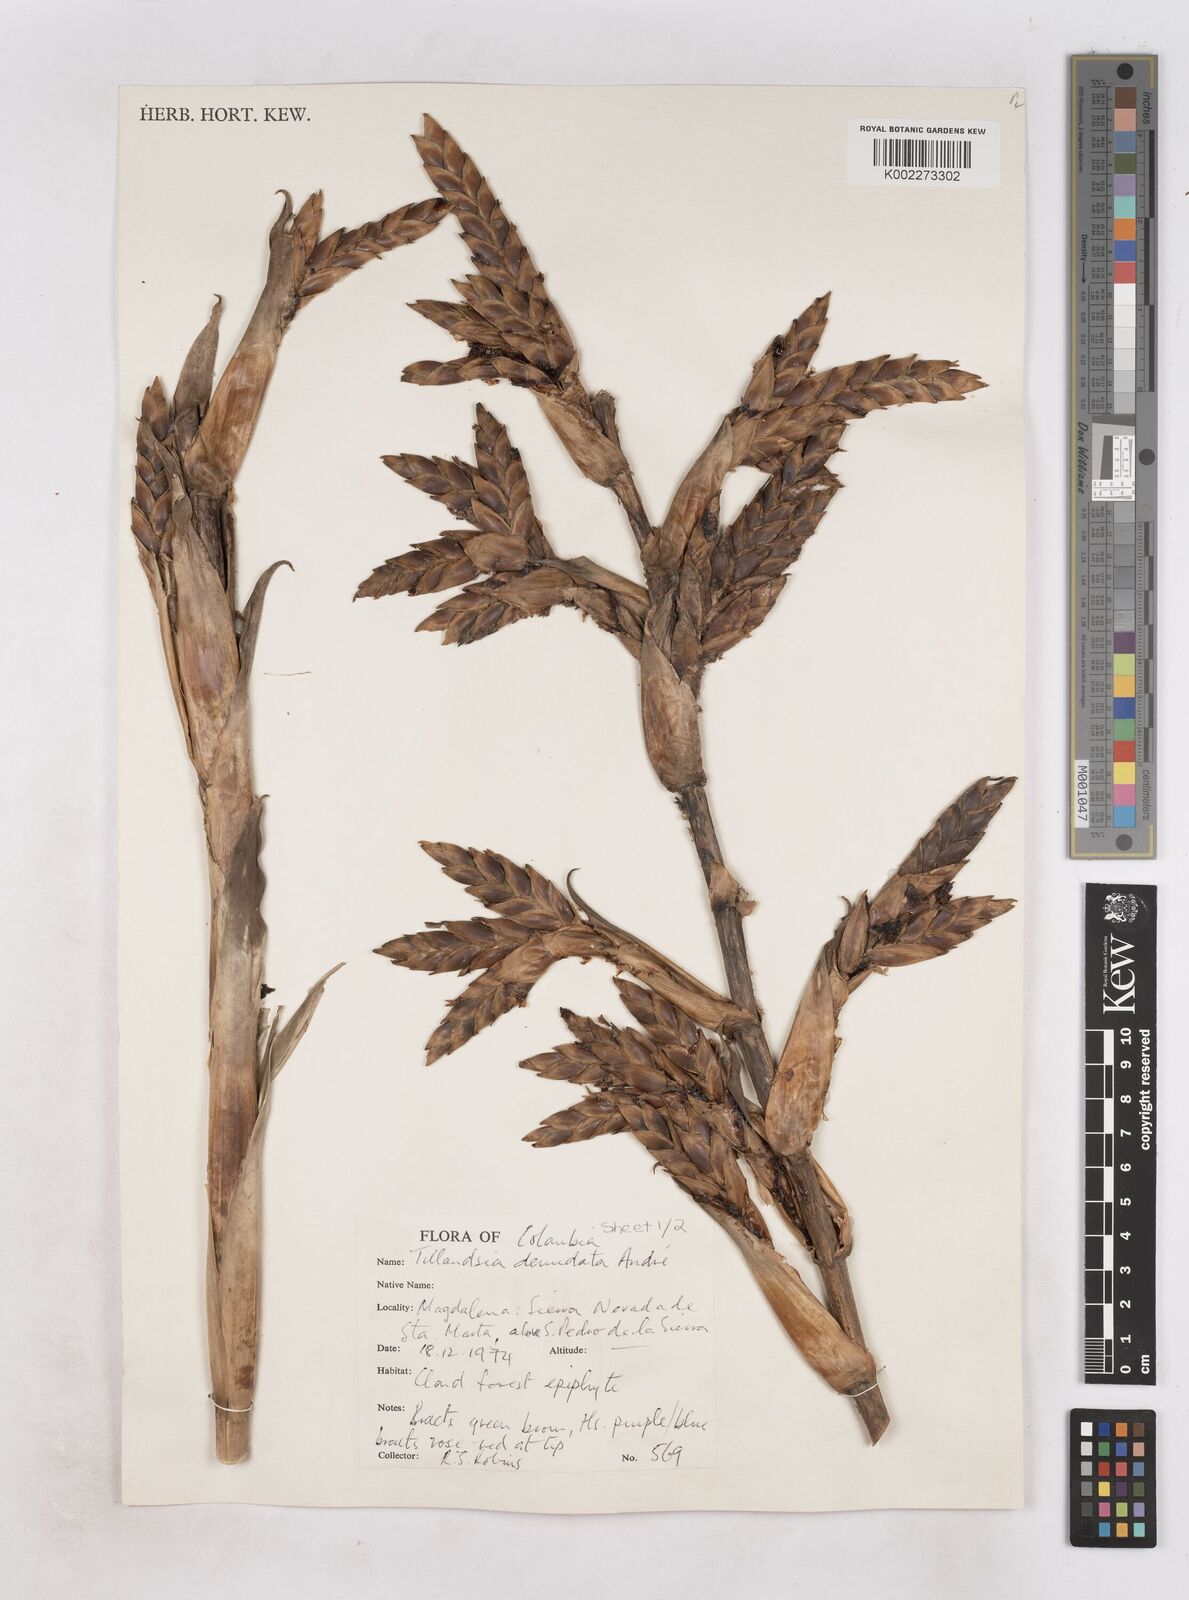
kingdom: Plantae
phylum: Tracheophyta
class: Liliopsida
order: Poales
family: Bromeliaceae
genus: Tillandsia
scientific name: Tillandsia denudata
